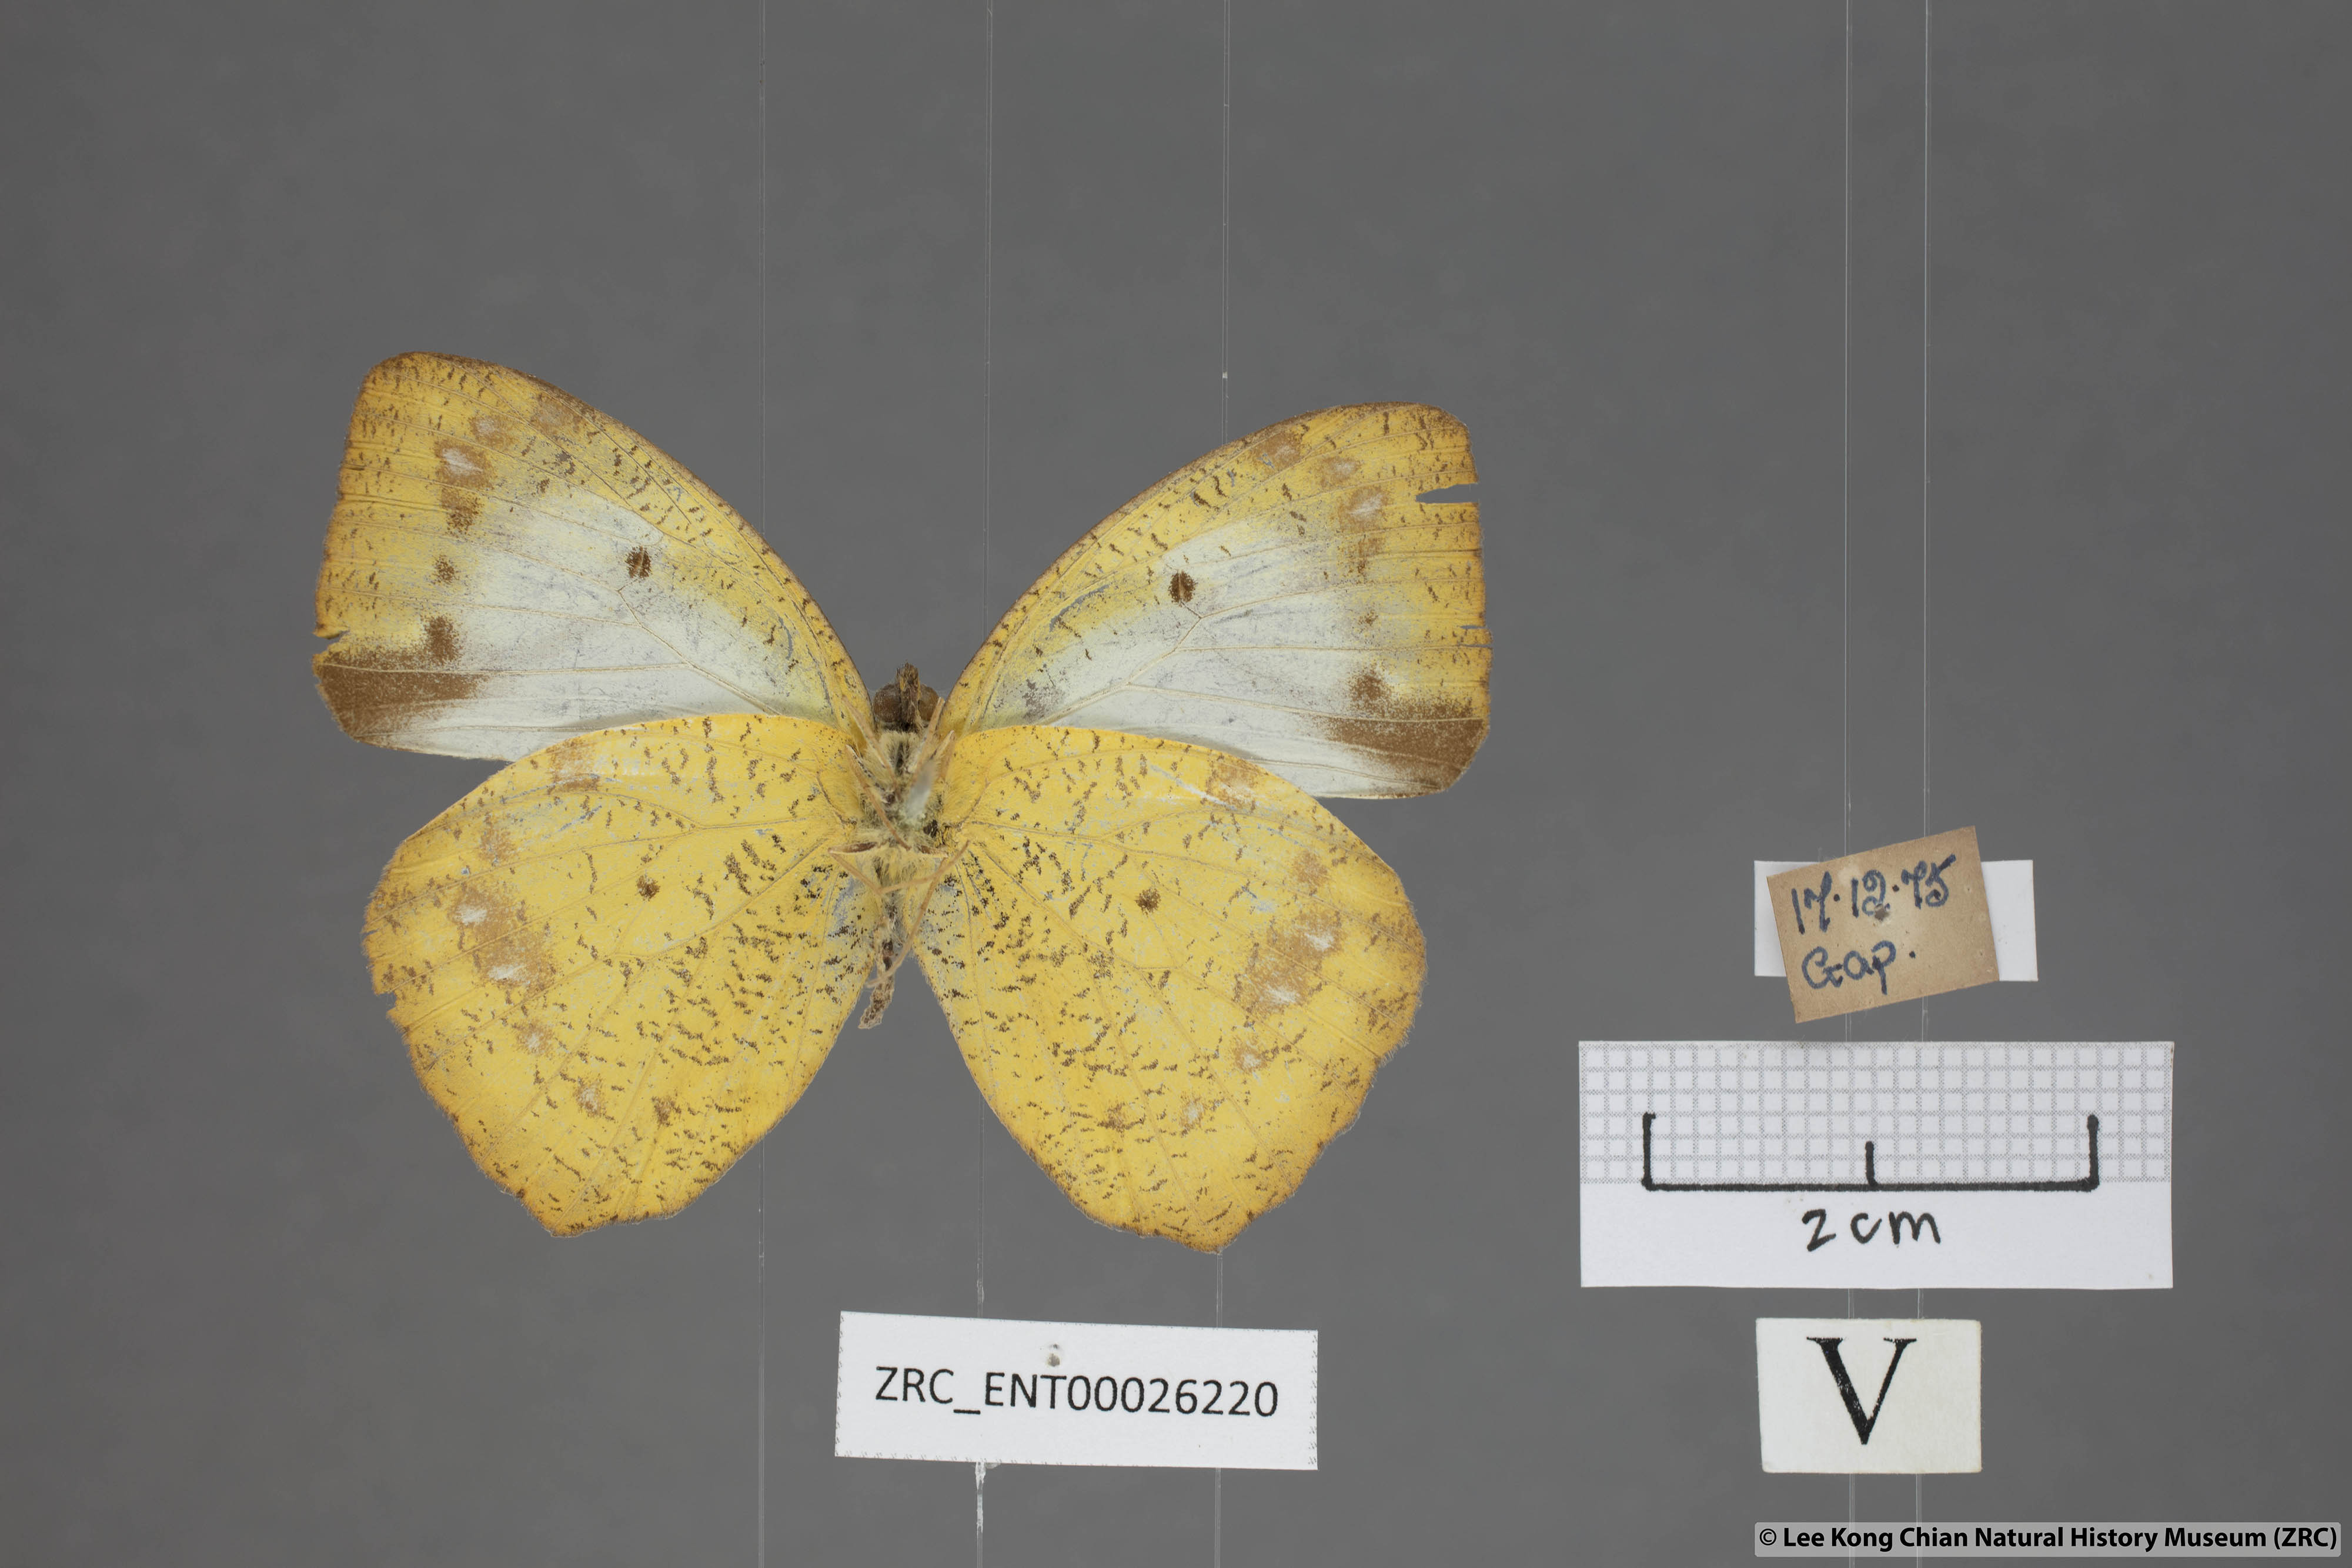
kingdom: Animalia
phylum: Arthropoda
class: Insecta
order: Lepidoptera
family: Pieridae
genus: Ixias
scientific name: Ixias pyrene
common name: Yellow orange tip
